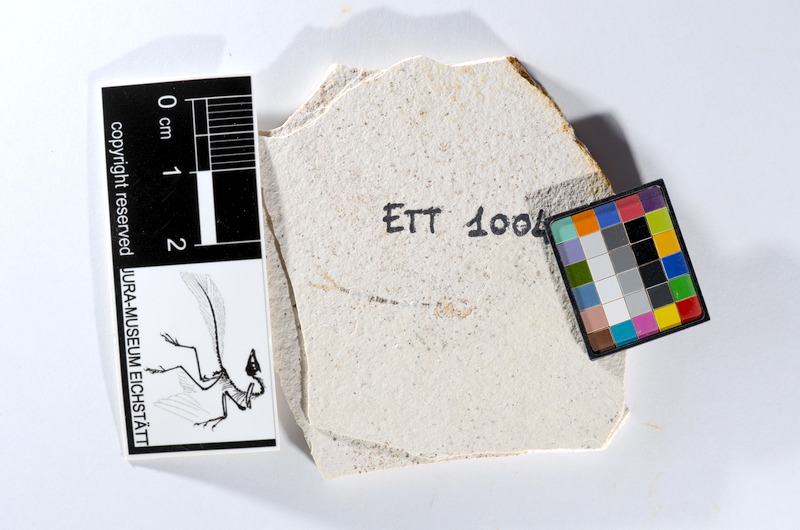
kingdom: Animalia
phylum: Chordata
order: Salmoniformes
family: Orthogonikleithridae
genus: Orthogonikleithrus
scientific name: Orthogonikleithrus hoelli
